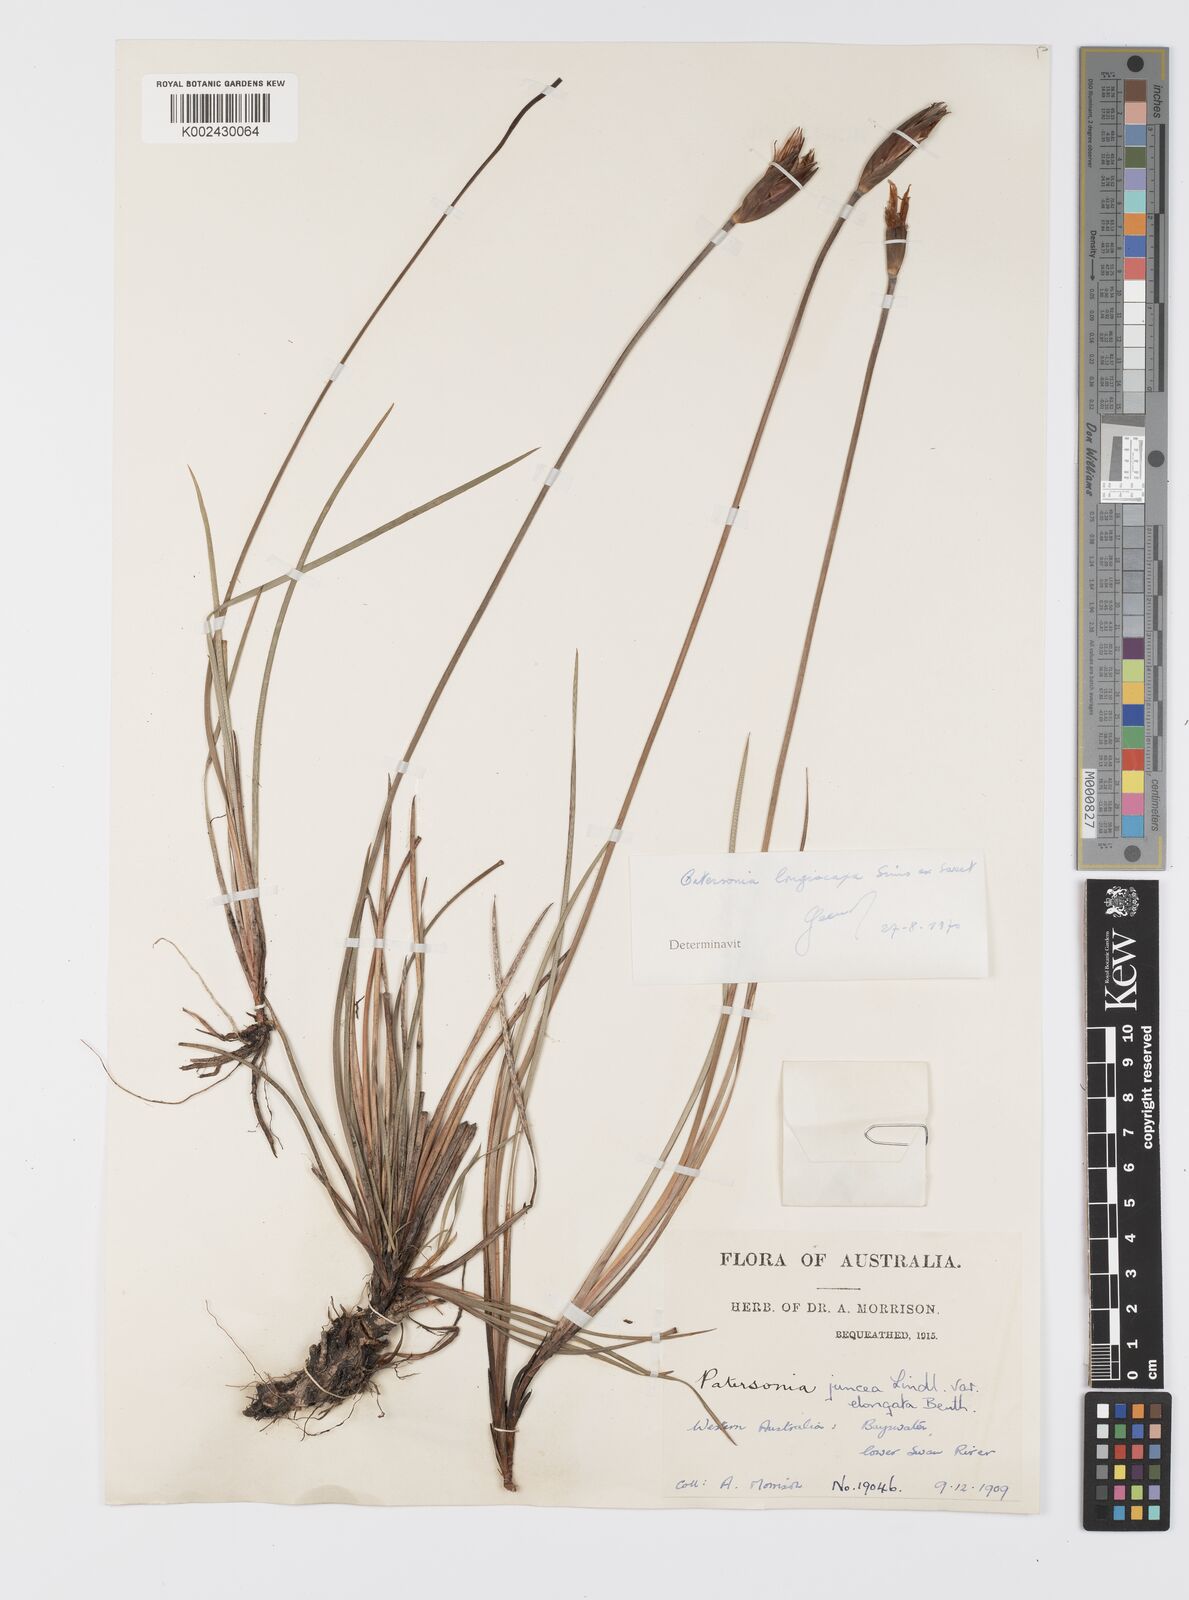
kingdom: Plantae
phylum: Tracheophyta
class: Liliopsida
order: Asparagales
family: Iridaceae
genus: Patersonia
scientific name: Patersonia juncea
